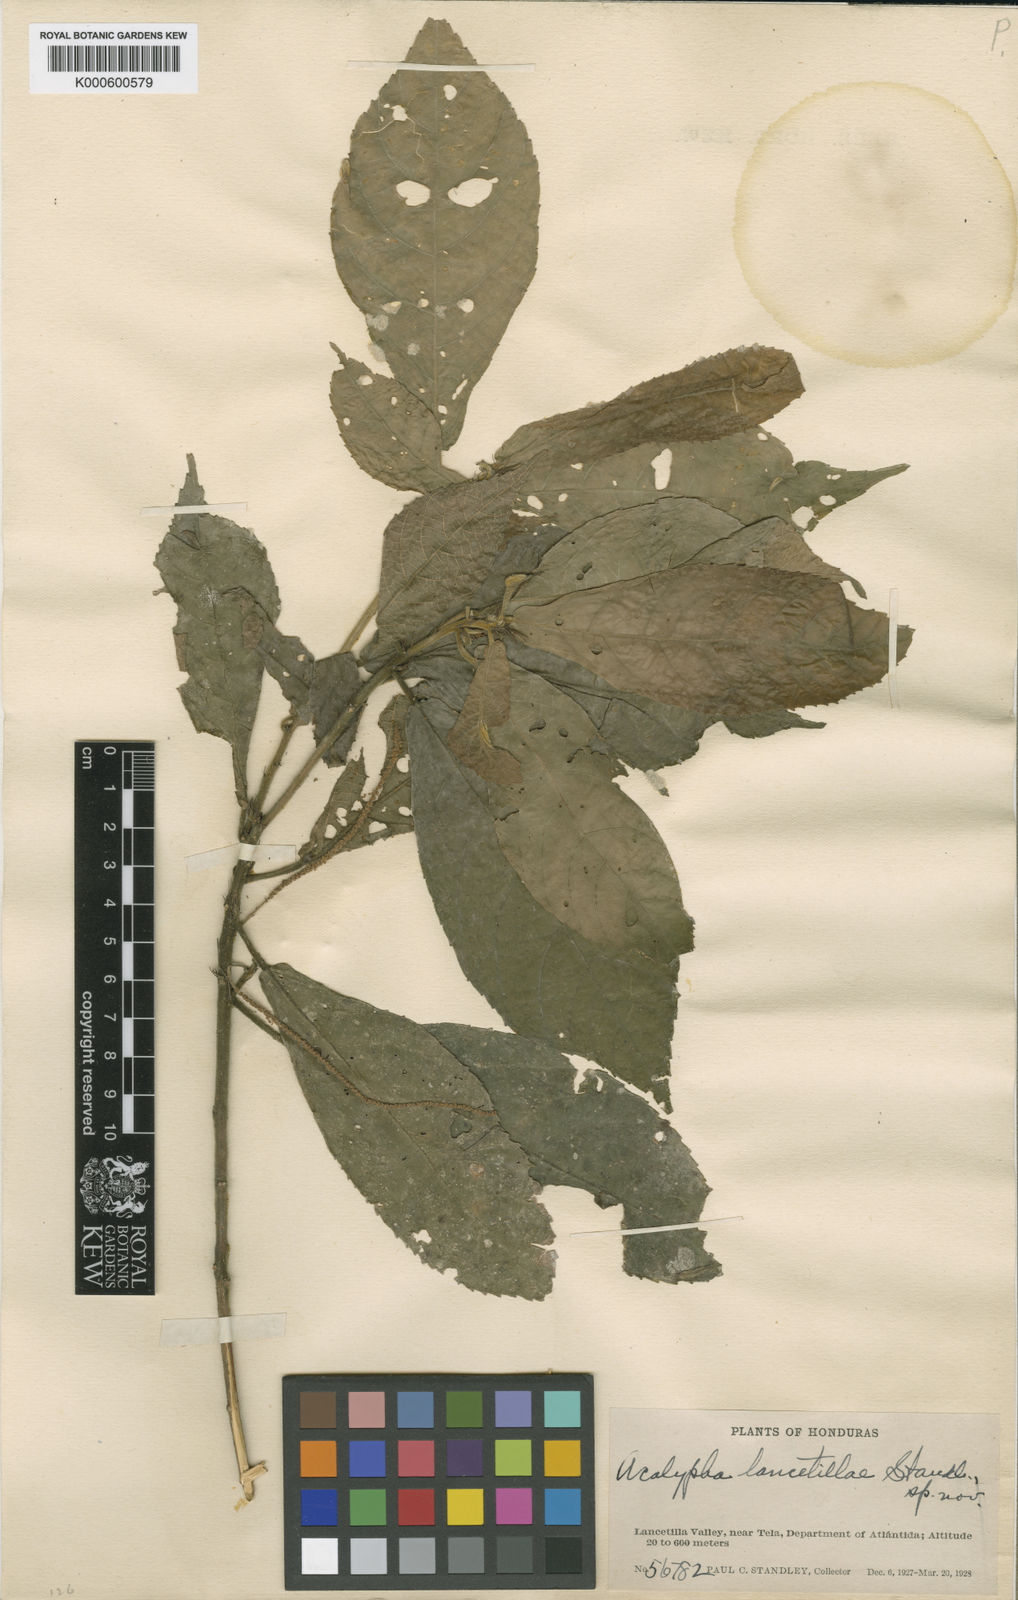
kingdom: Plantae
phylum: Tracheophyta
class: Magnoliopsida
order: Malpighiales
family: Euphorbiaceae
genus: Acalypha
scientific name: Acalypha lancetillae
